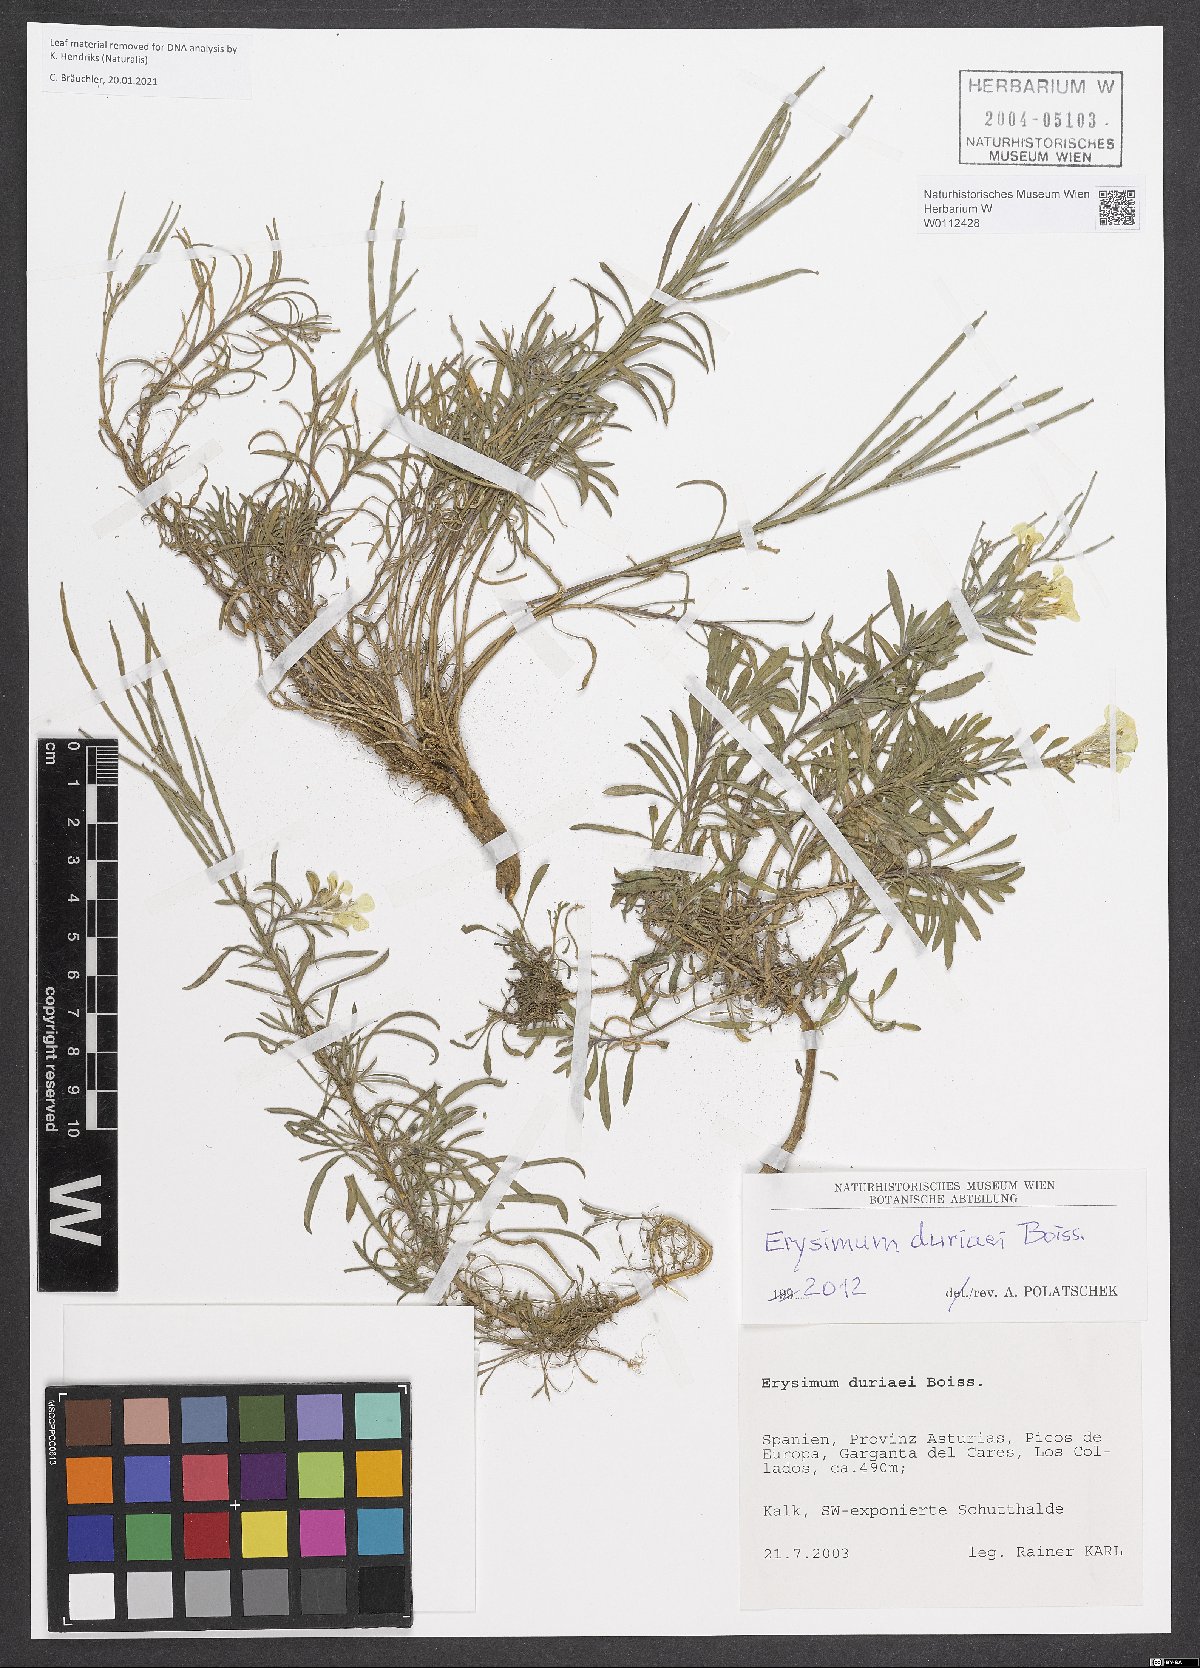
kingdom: Plantae
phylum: Tracheophyta
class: Magnoliopsida
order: Brassicales
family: Brassicaceae
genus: Erysimum
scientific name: Erysimum duriaei
